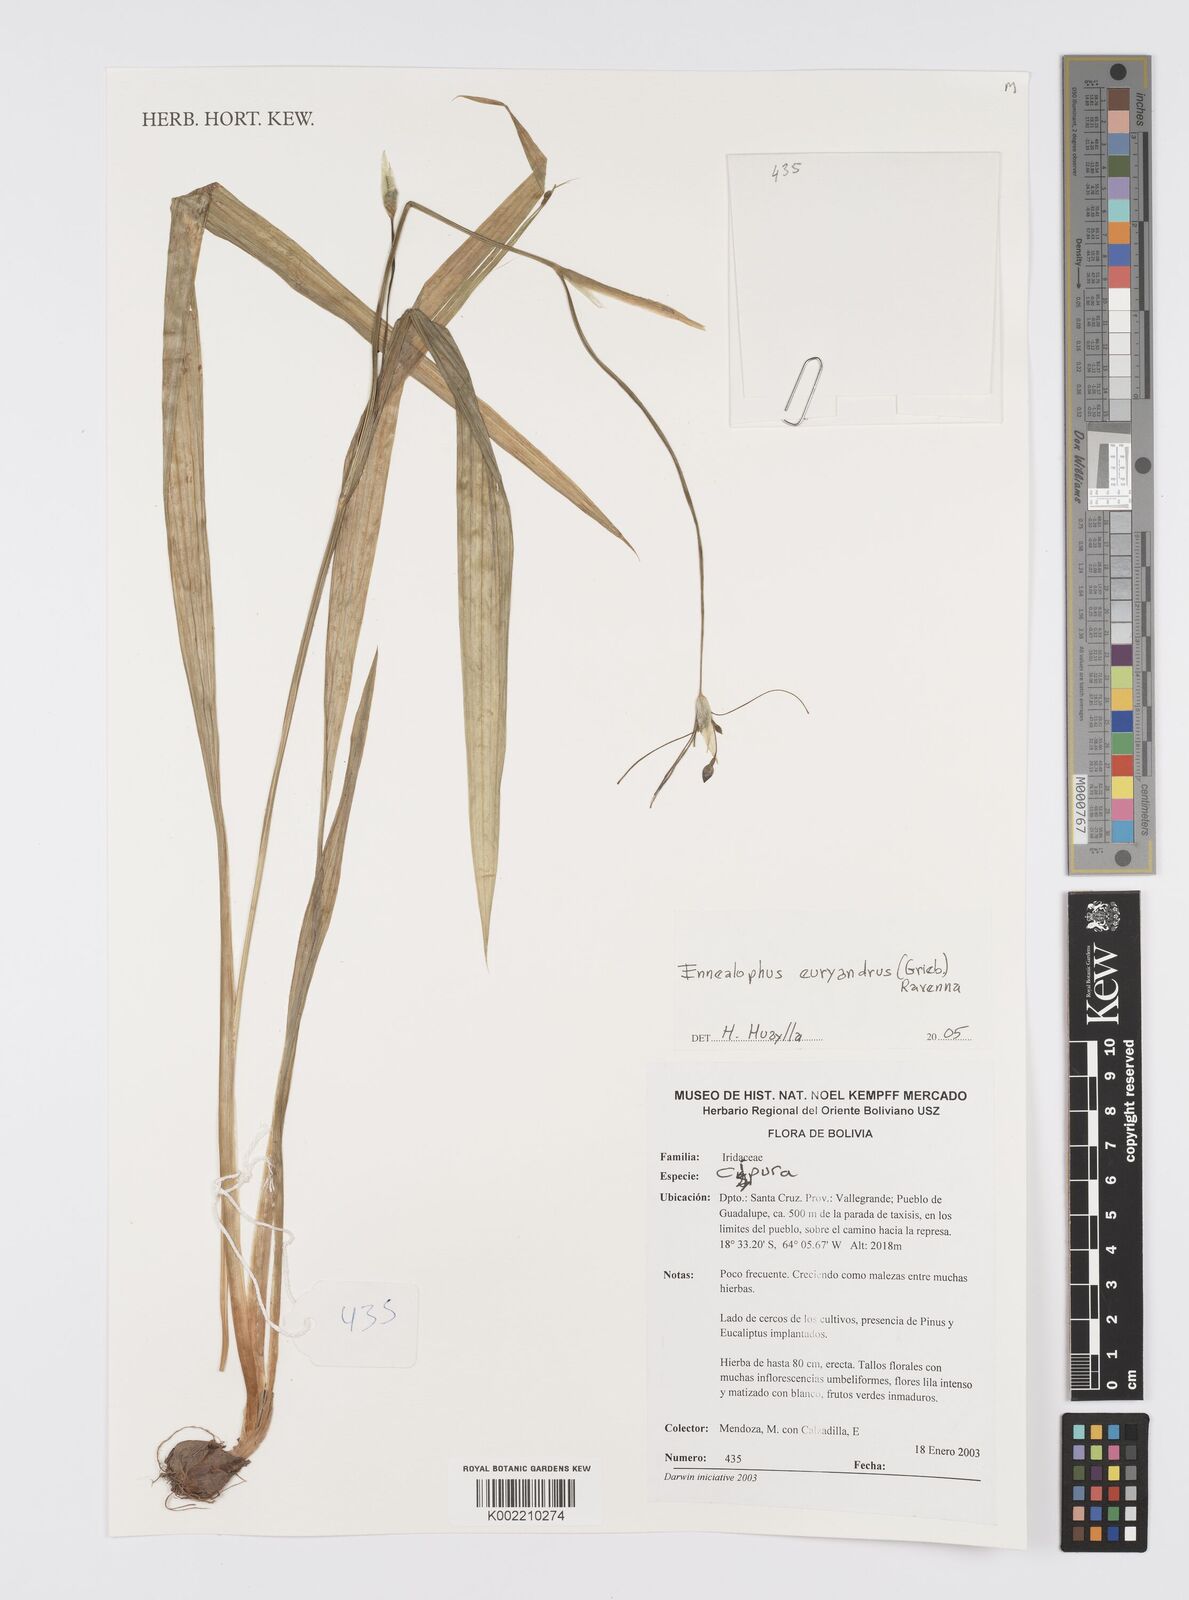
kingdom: Plantae
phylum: Tracheophyta
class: Liliopsida
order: Asparagales
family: Iridaceae
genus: Ennealophus
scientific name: Ennealophus euryandrus
